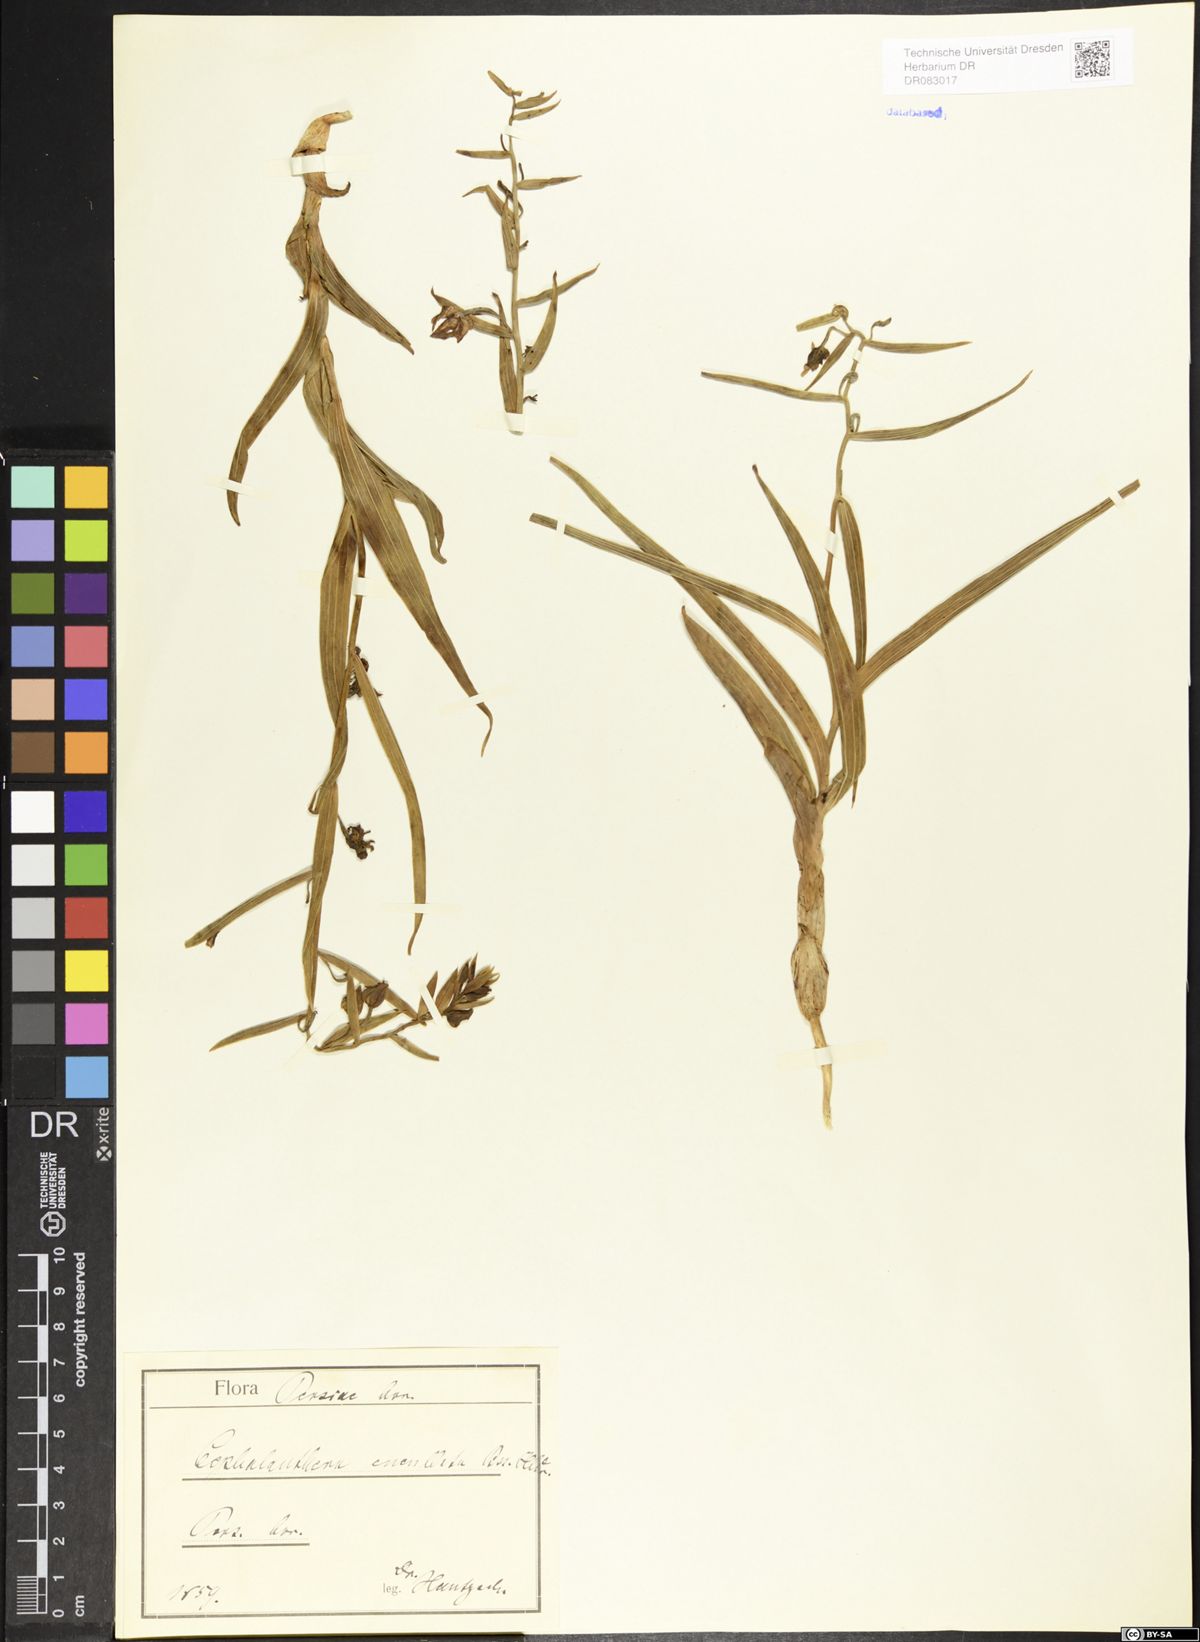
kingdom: Plantae
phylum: Tracheophyta
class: Liliopsida
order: Asparagales
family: Orchidaceae
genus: Cephalanthera
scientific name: Cephalanthera cucullata
